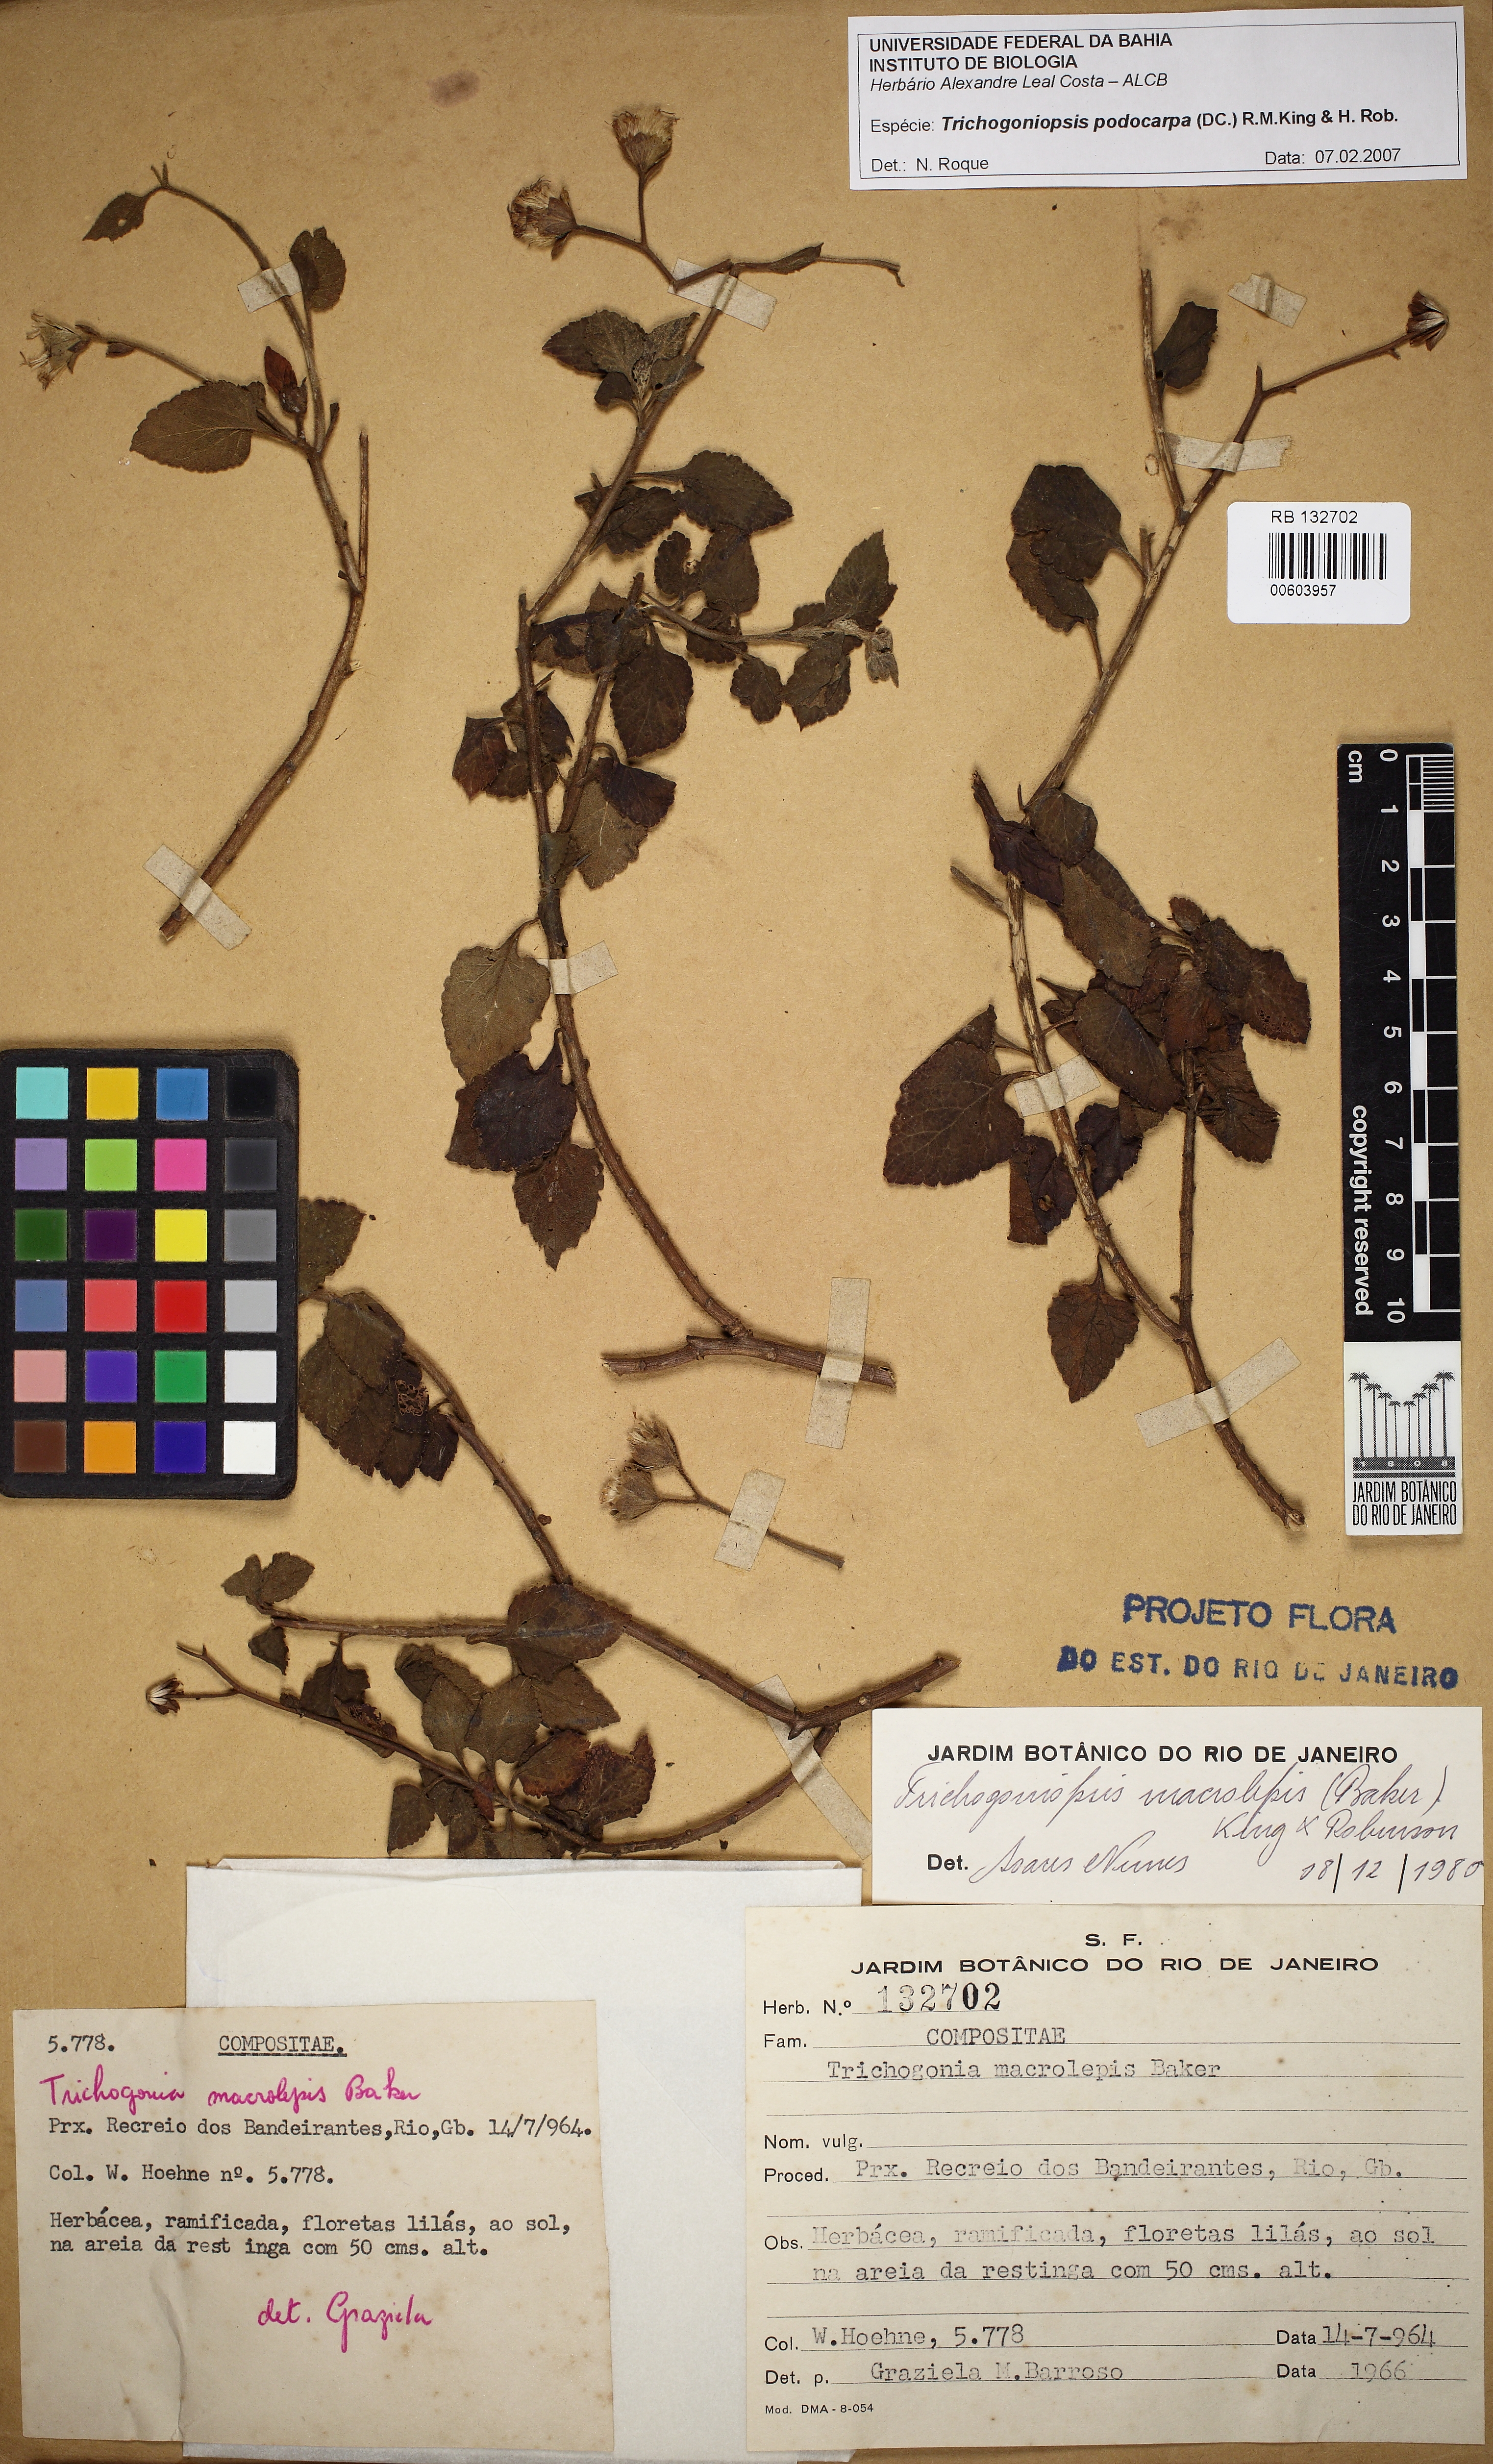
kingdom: Plantae
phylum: Tracheophyta
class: Magnoliopsida
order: Asterales
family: Asteraceae
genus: Trichogoniopsis
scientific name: Trichogoniopsis podocarpa
